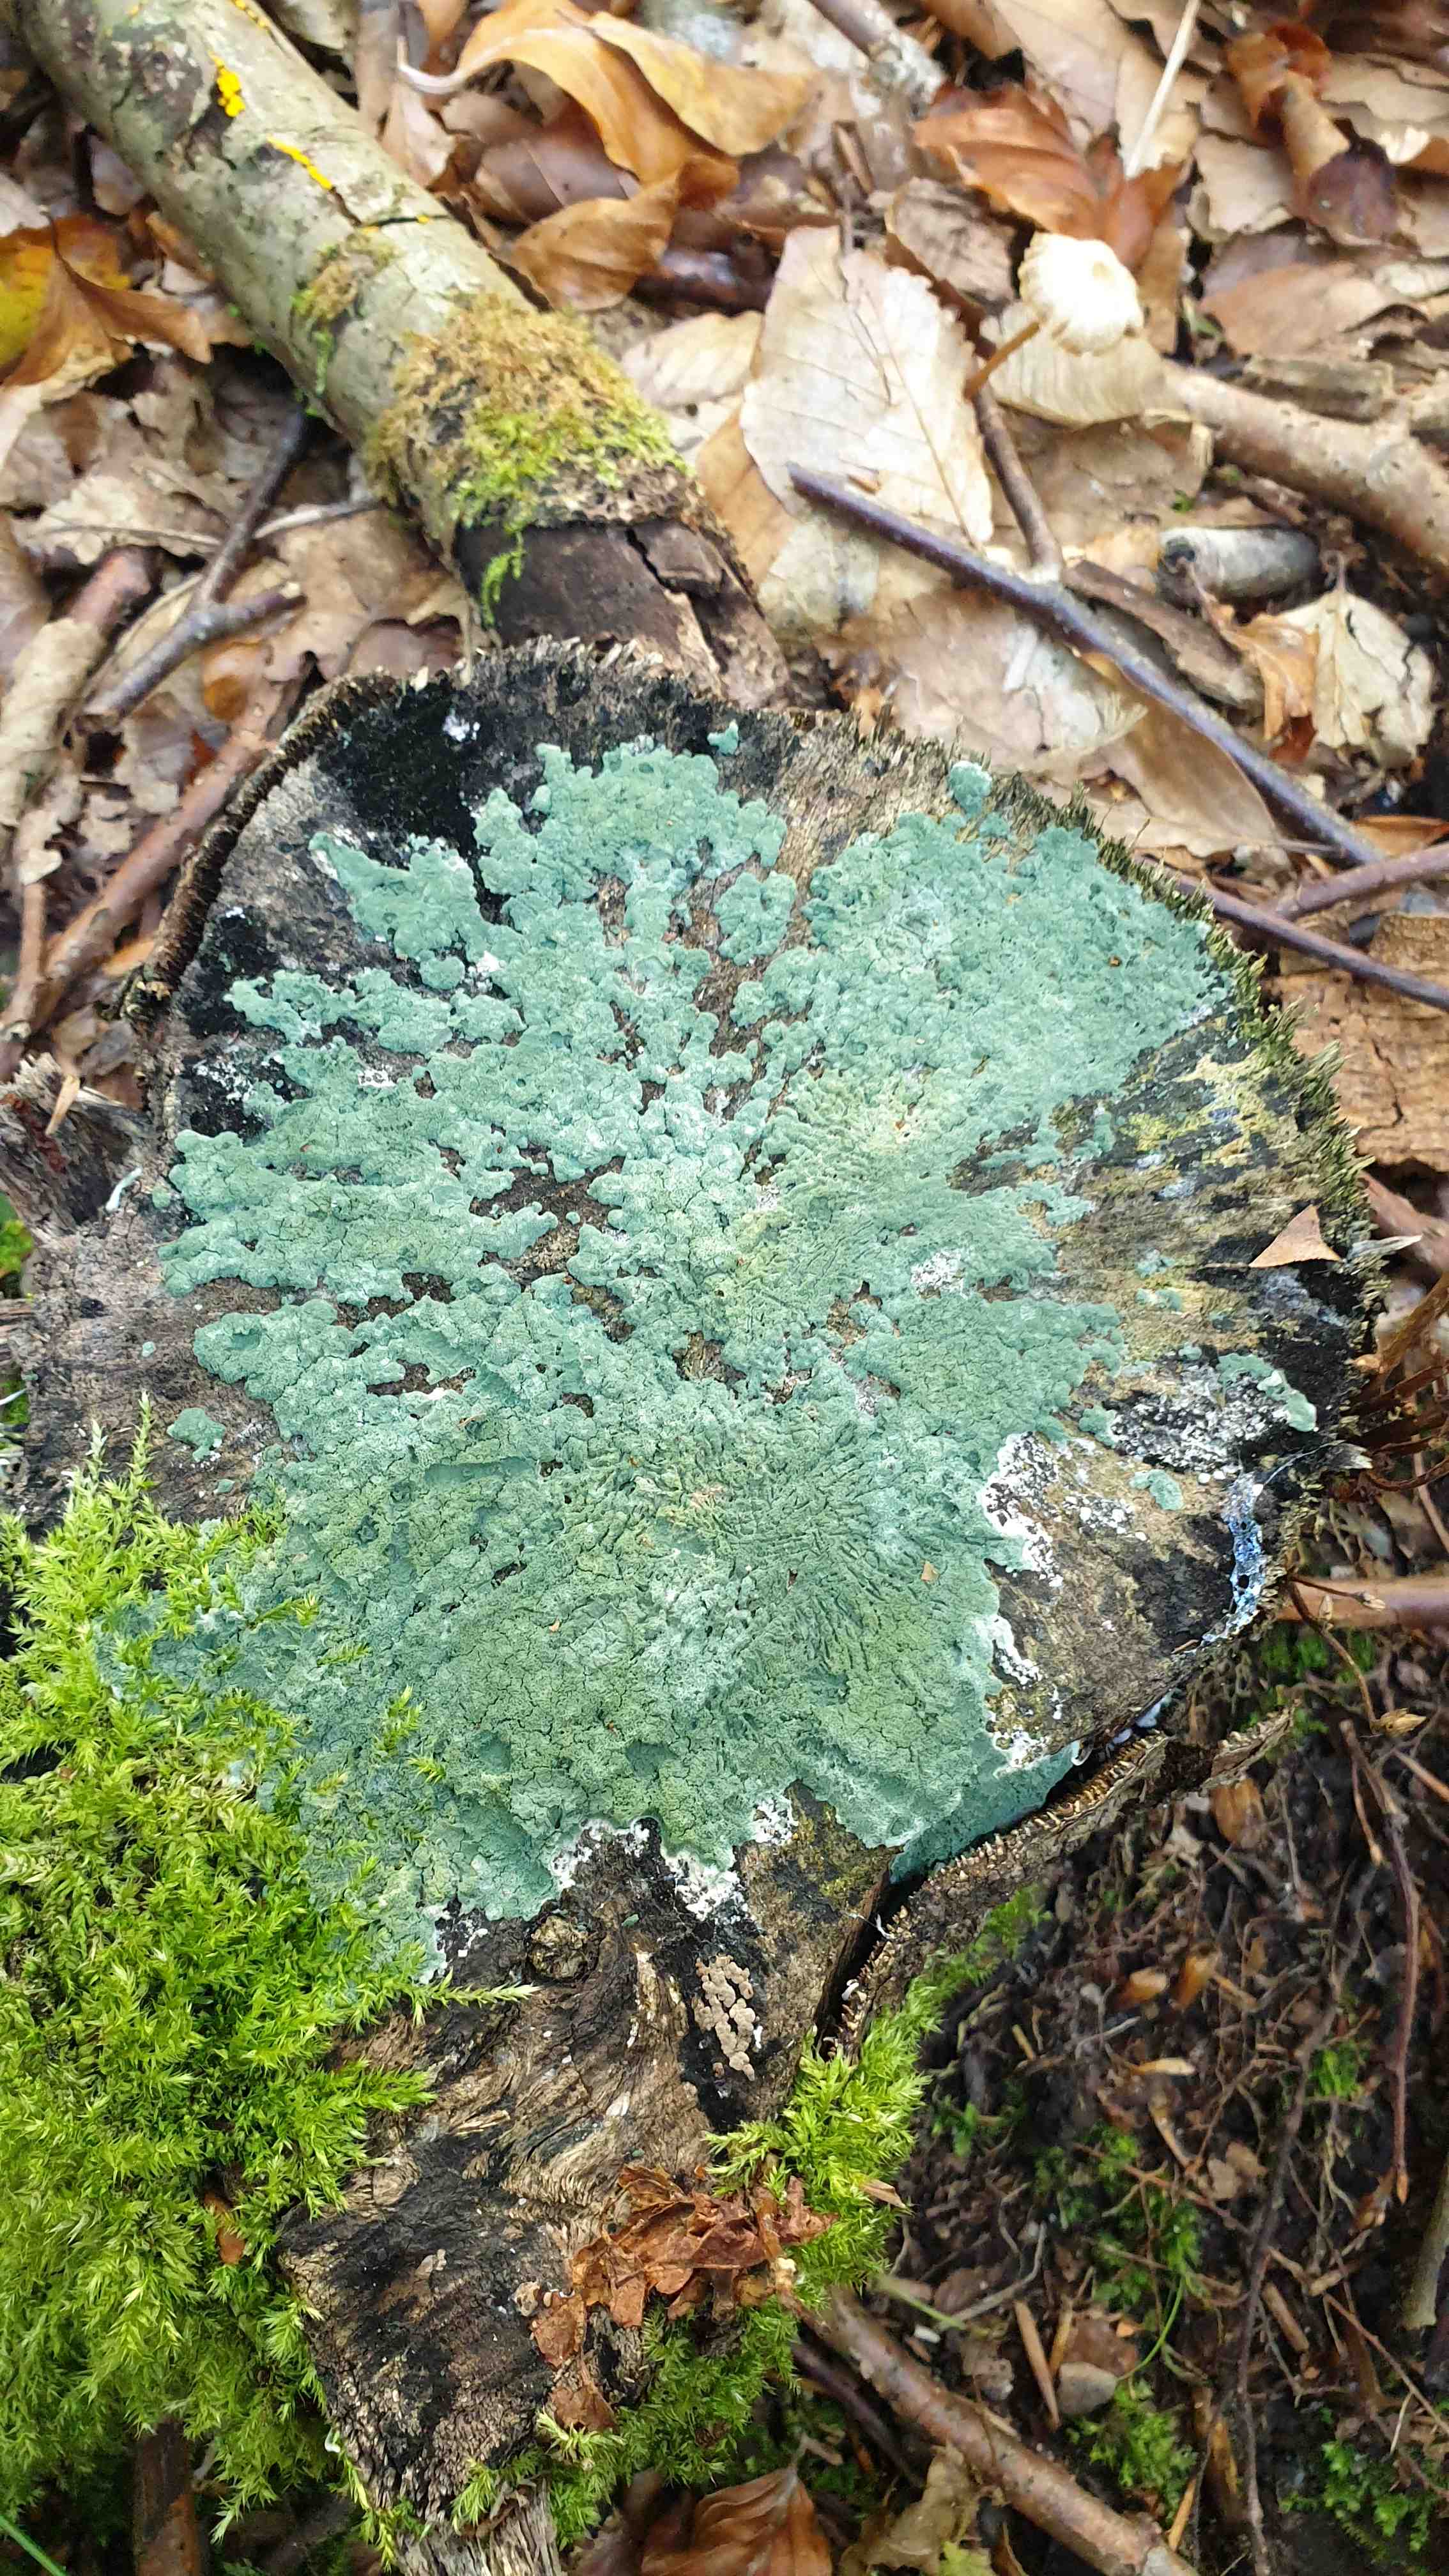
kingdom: Fungi
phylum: Ascomycota
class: Sordariomycetes
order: Hypocreales
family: Hypocreaceae
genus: Trichoderma
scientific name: Trichoderma
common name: kødkerne
